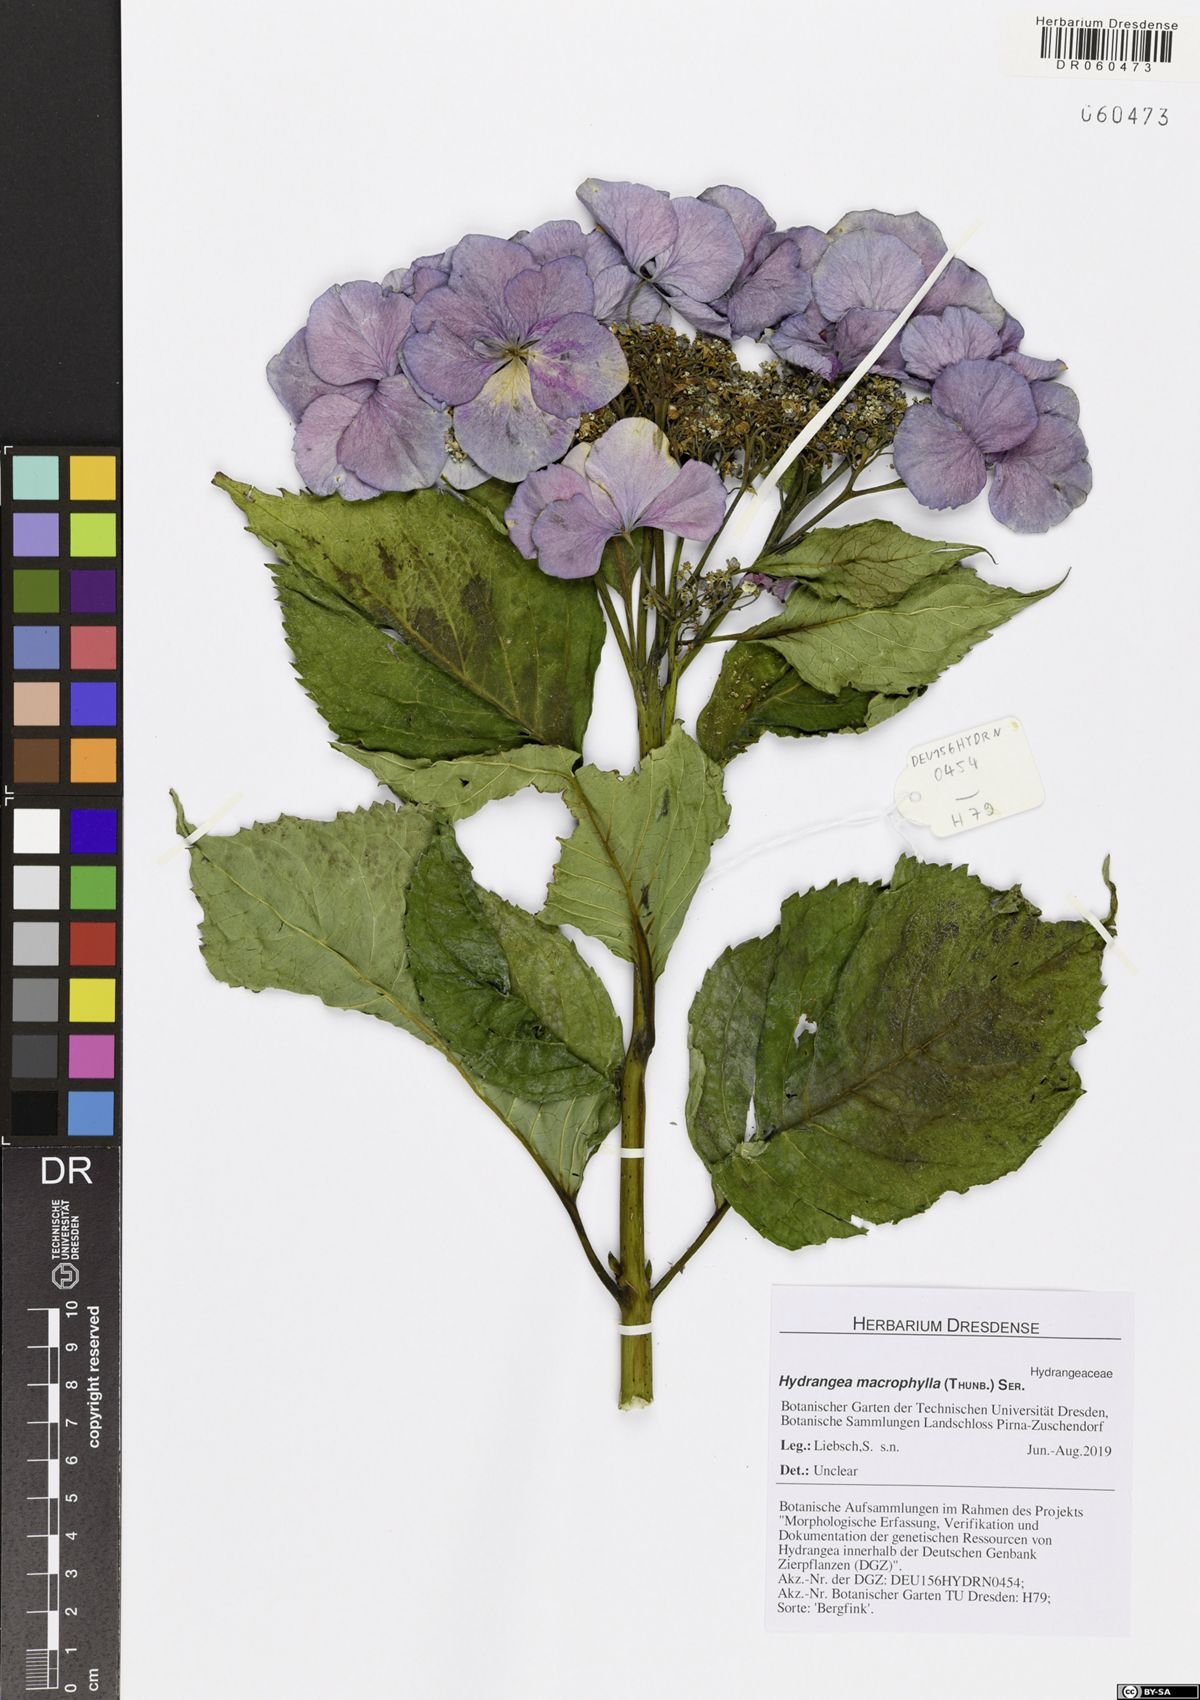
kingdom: Plantae
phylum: Tracheophyta
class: Magnoliopsida
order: Cornales
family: Hydrangeaceae
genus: Hydrangea
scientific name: Hydrangea macrophylla
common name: Hydrangea
